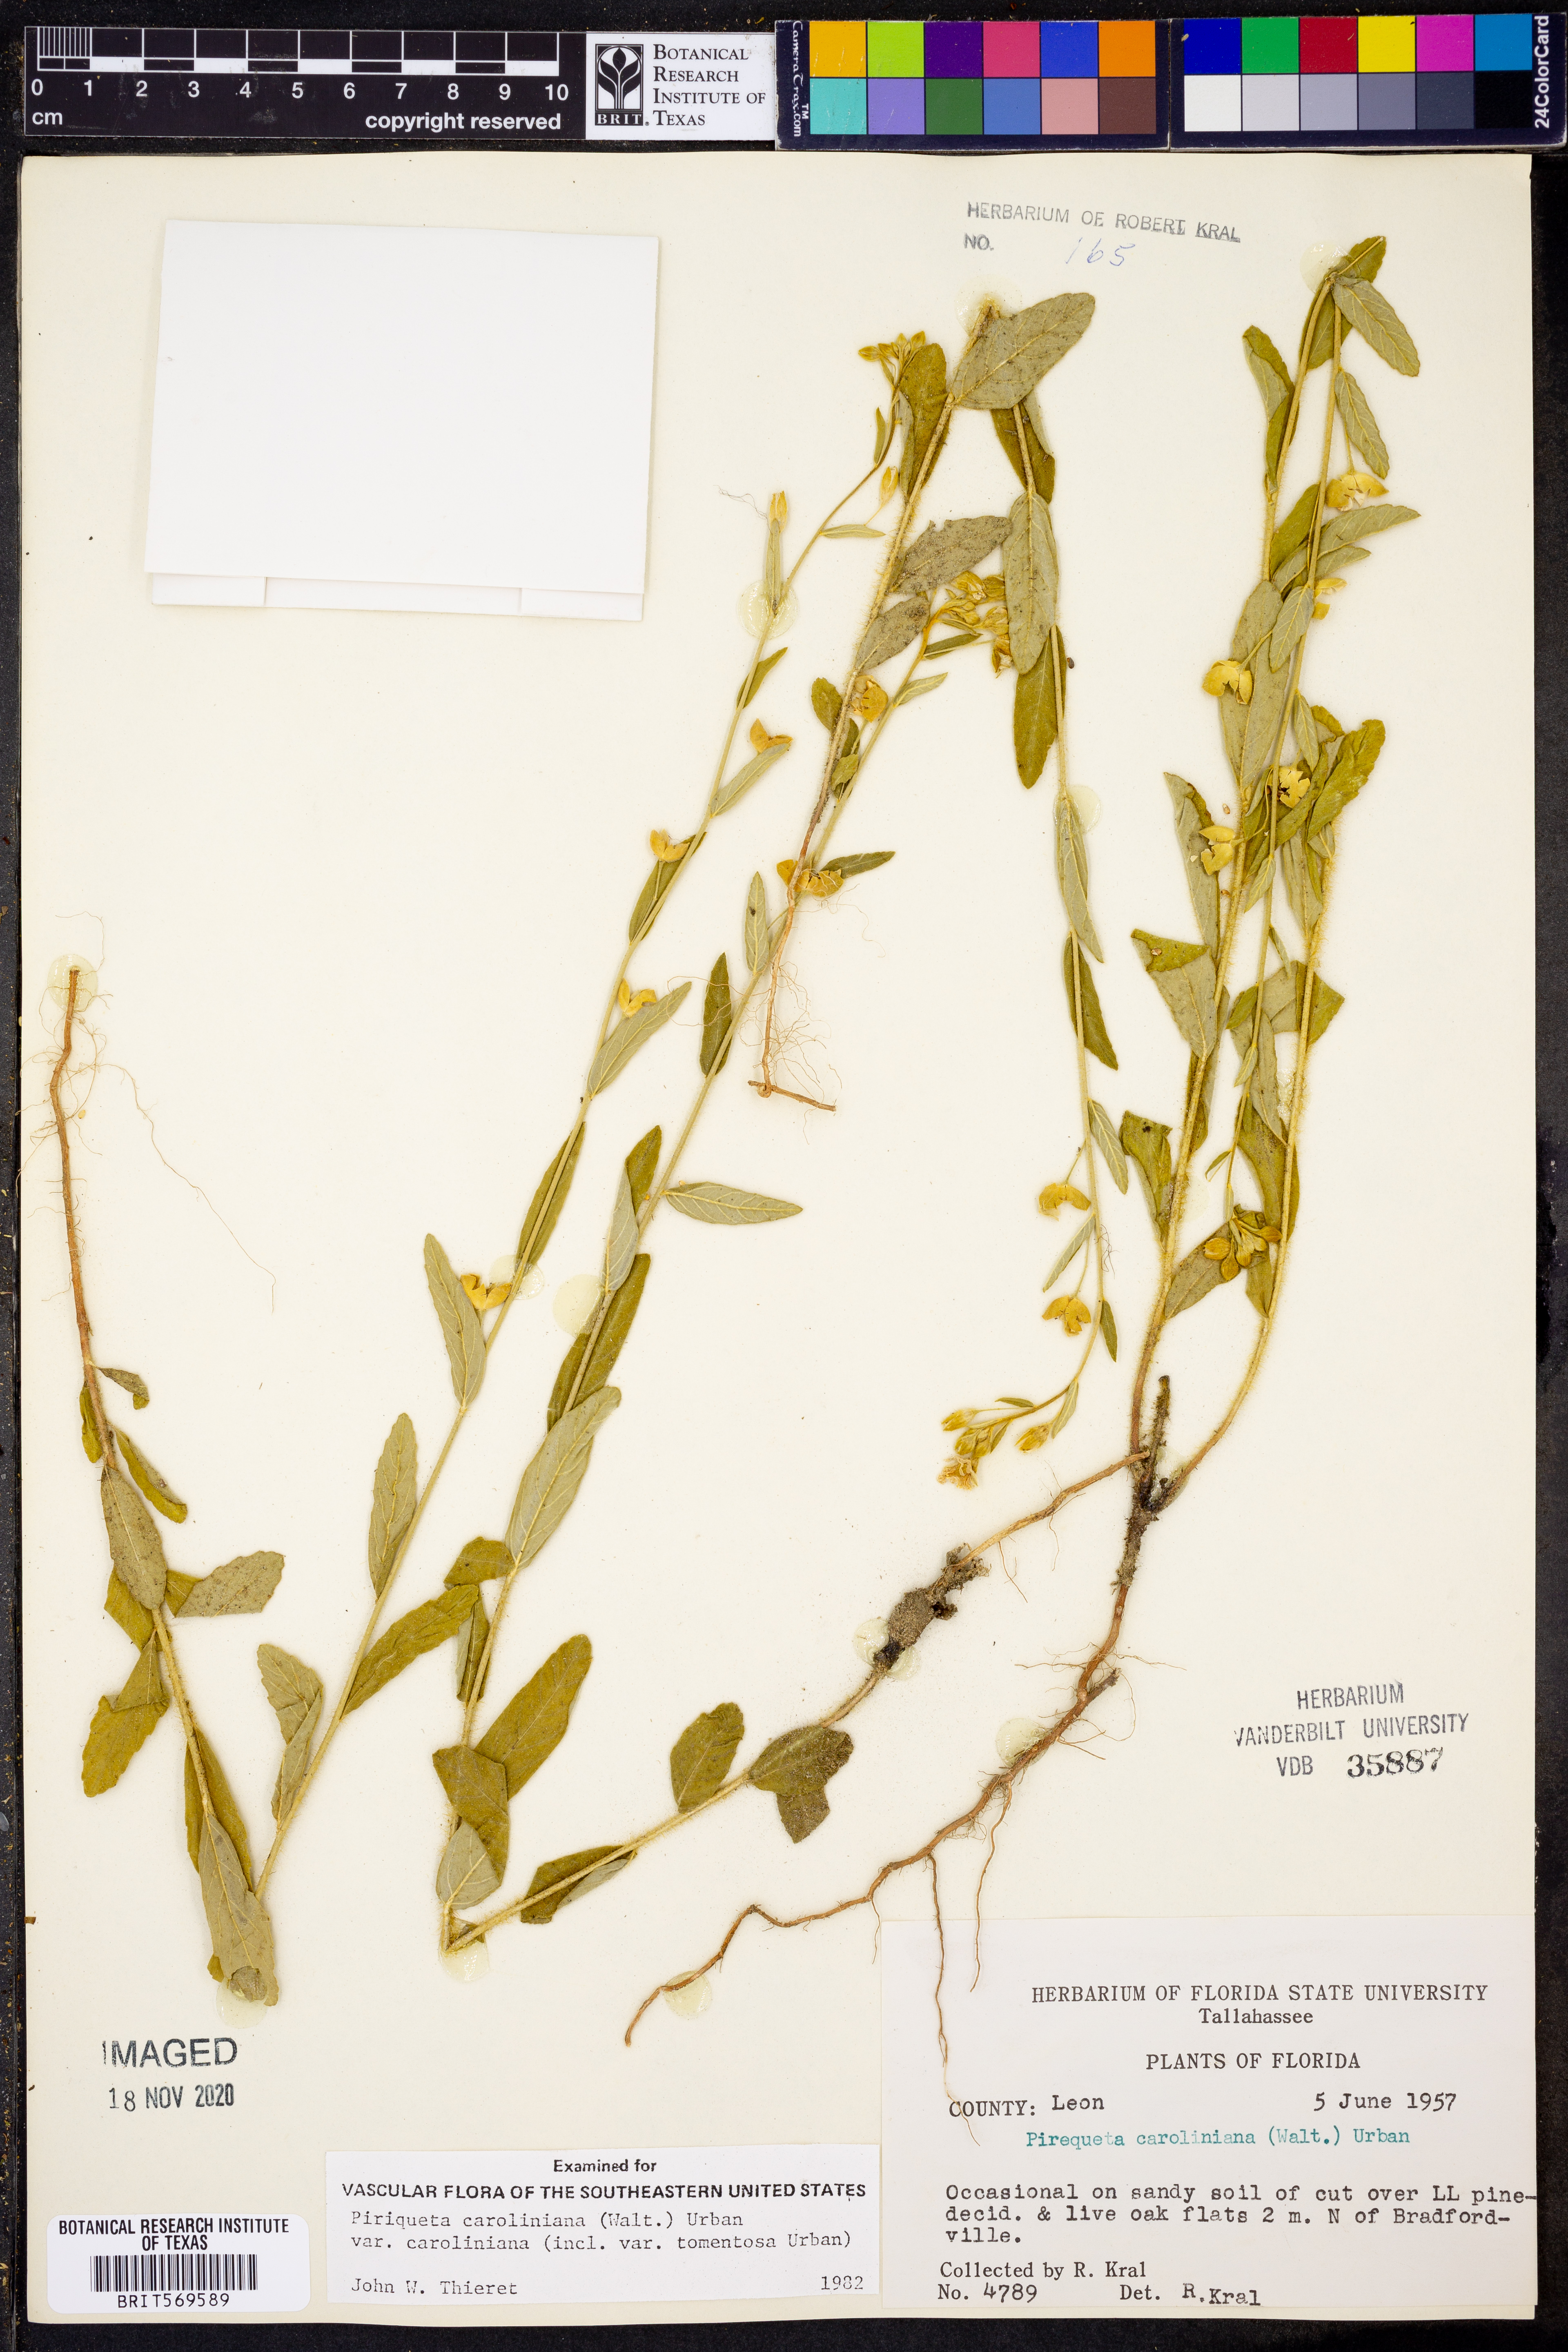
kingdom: Plantae
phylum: Tracheophyta
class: Magnoliopsida
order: Malpighiales
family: Turneraceae
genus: Piriqueta
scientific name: Piriqueta cistoides
